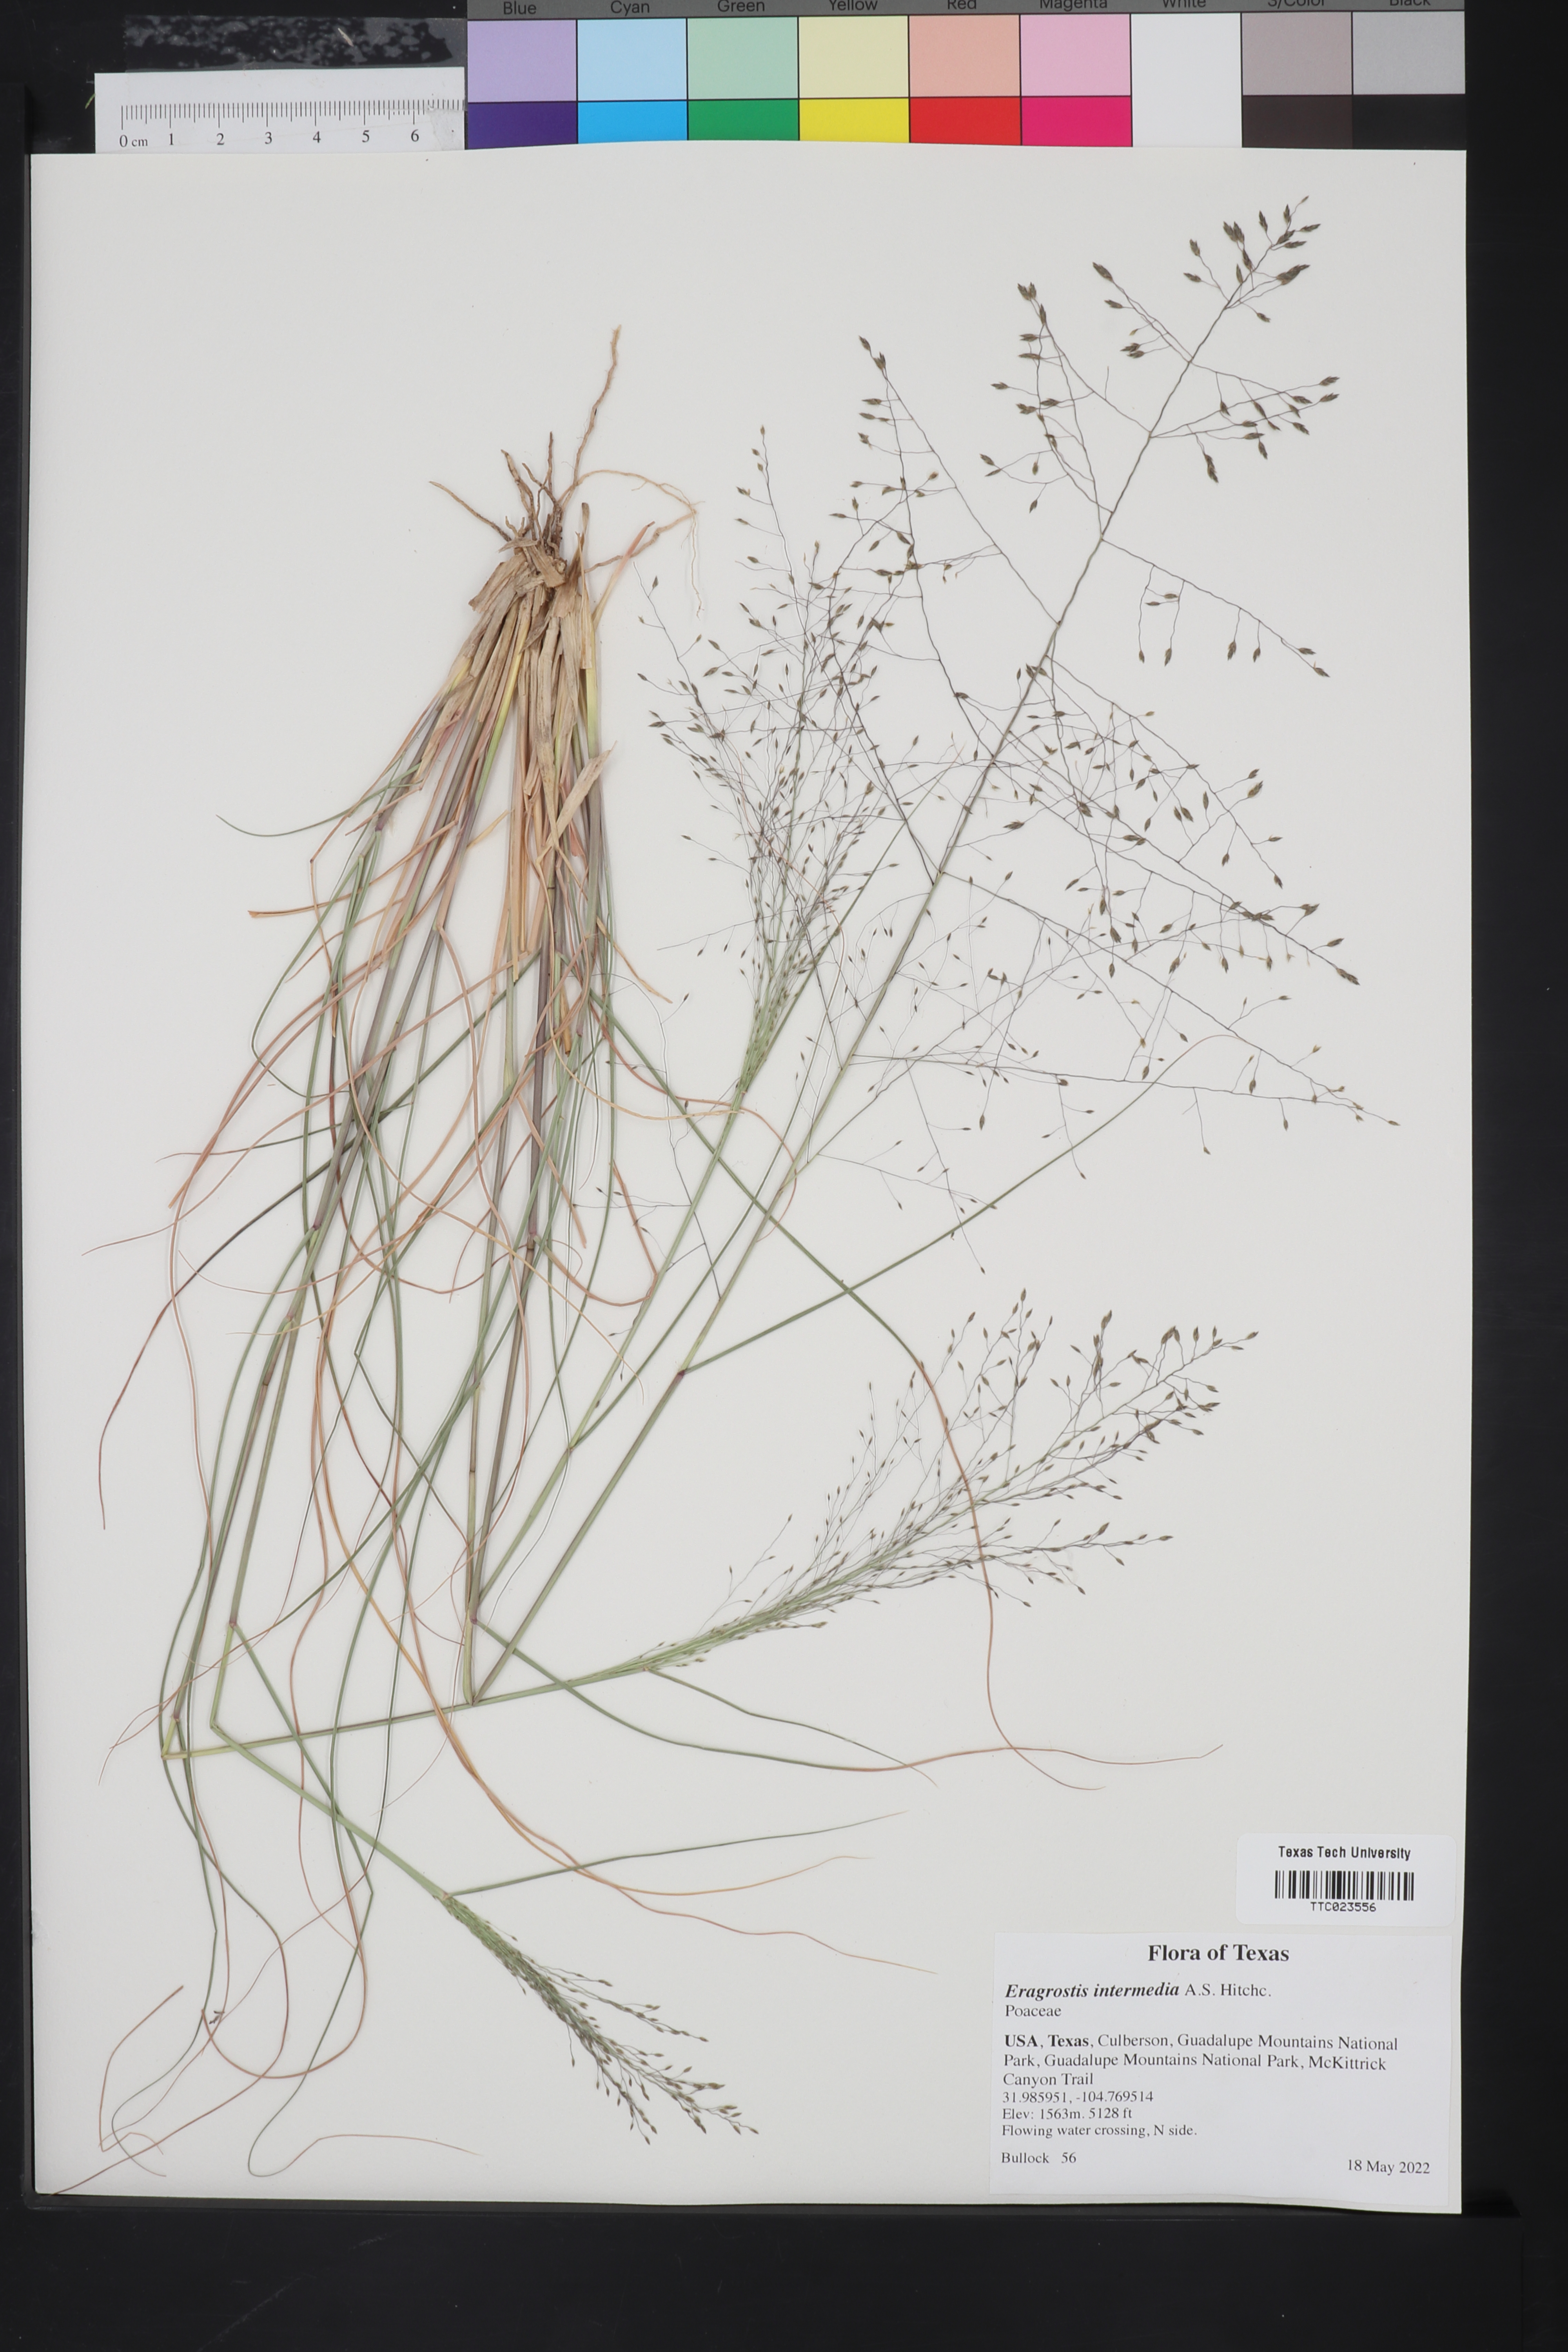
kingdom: Plantae
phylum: Tracheophyta
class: Liliopsida
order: Poales
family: Poaceae
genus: Eragrostis
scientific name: Eragrostis intermedia
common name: Plains love grass
